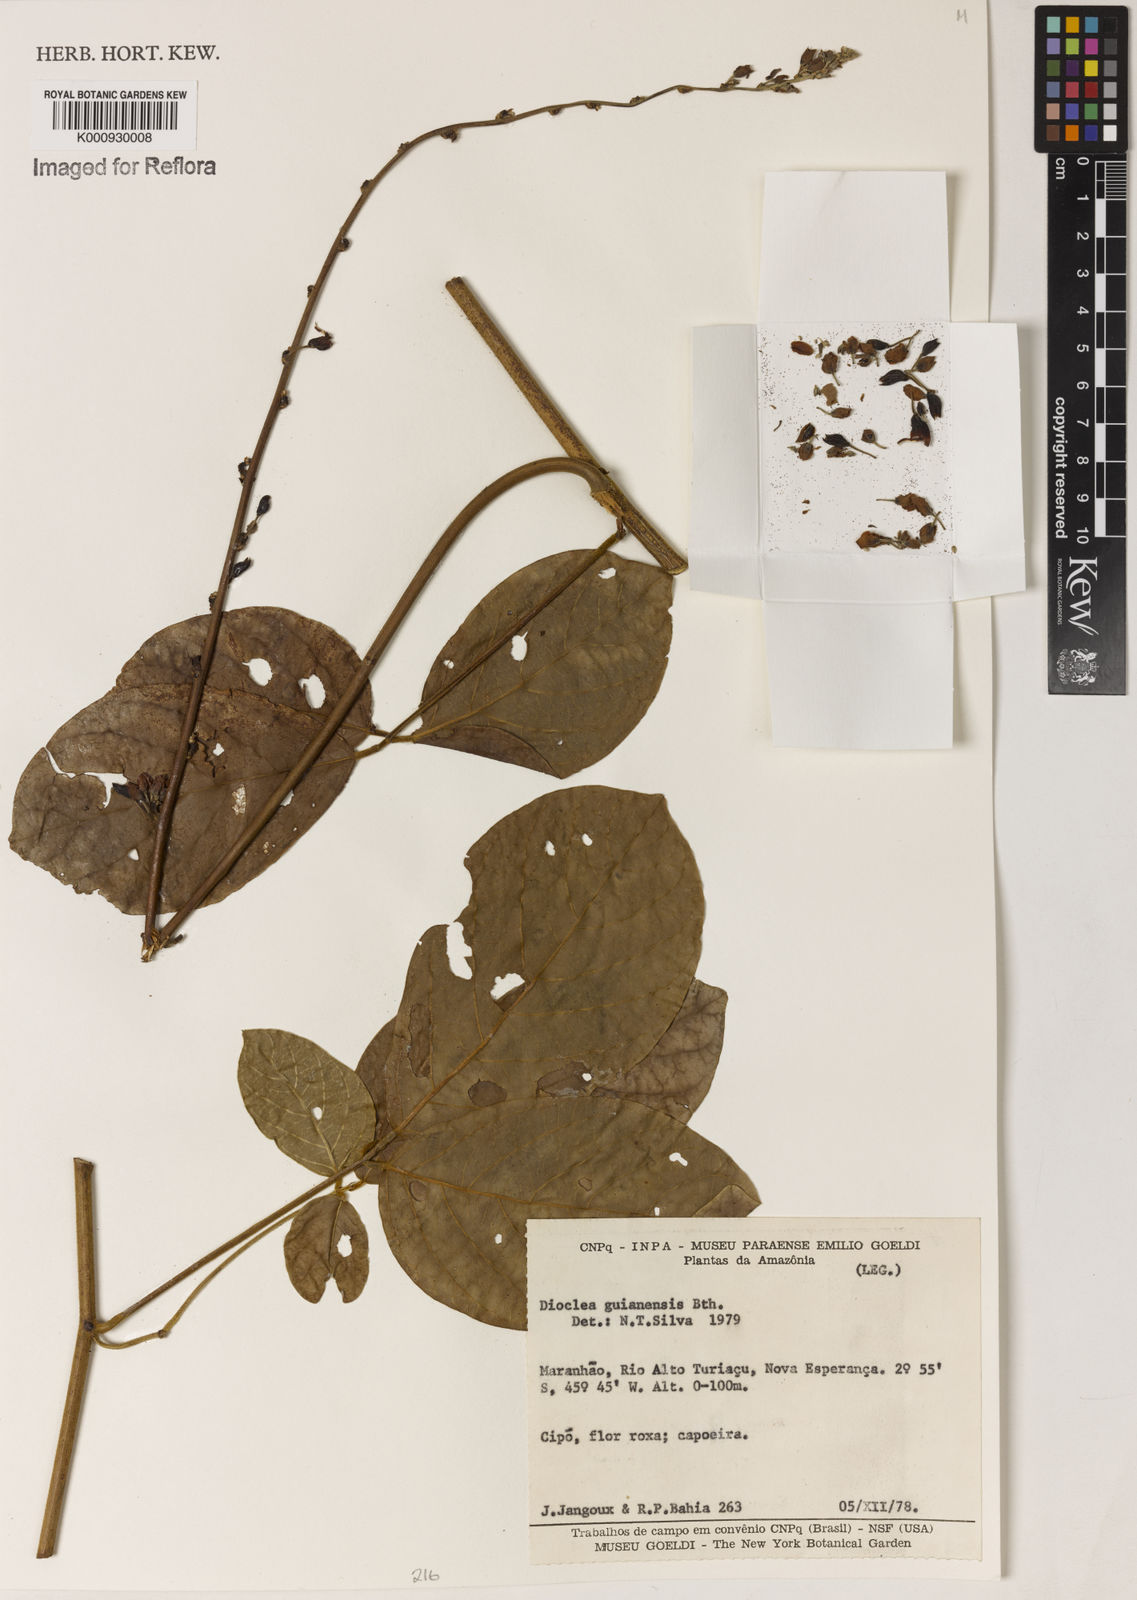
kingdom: Plantae
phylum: Tracheophyta
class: Magnoliopsida
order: Fabales
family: Fabaceae
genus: Dioclea
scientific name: Dioclea guianensis
